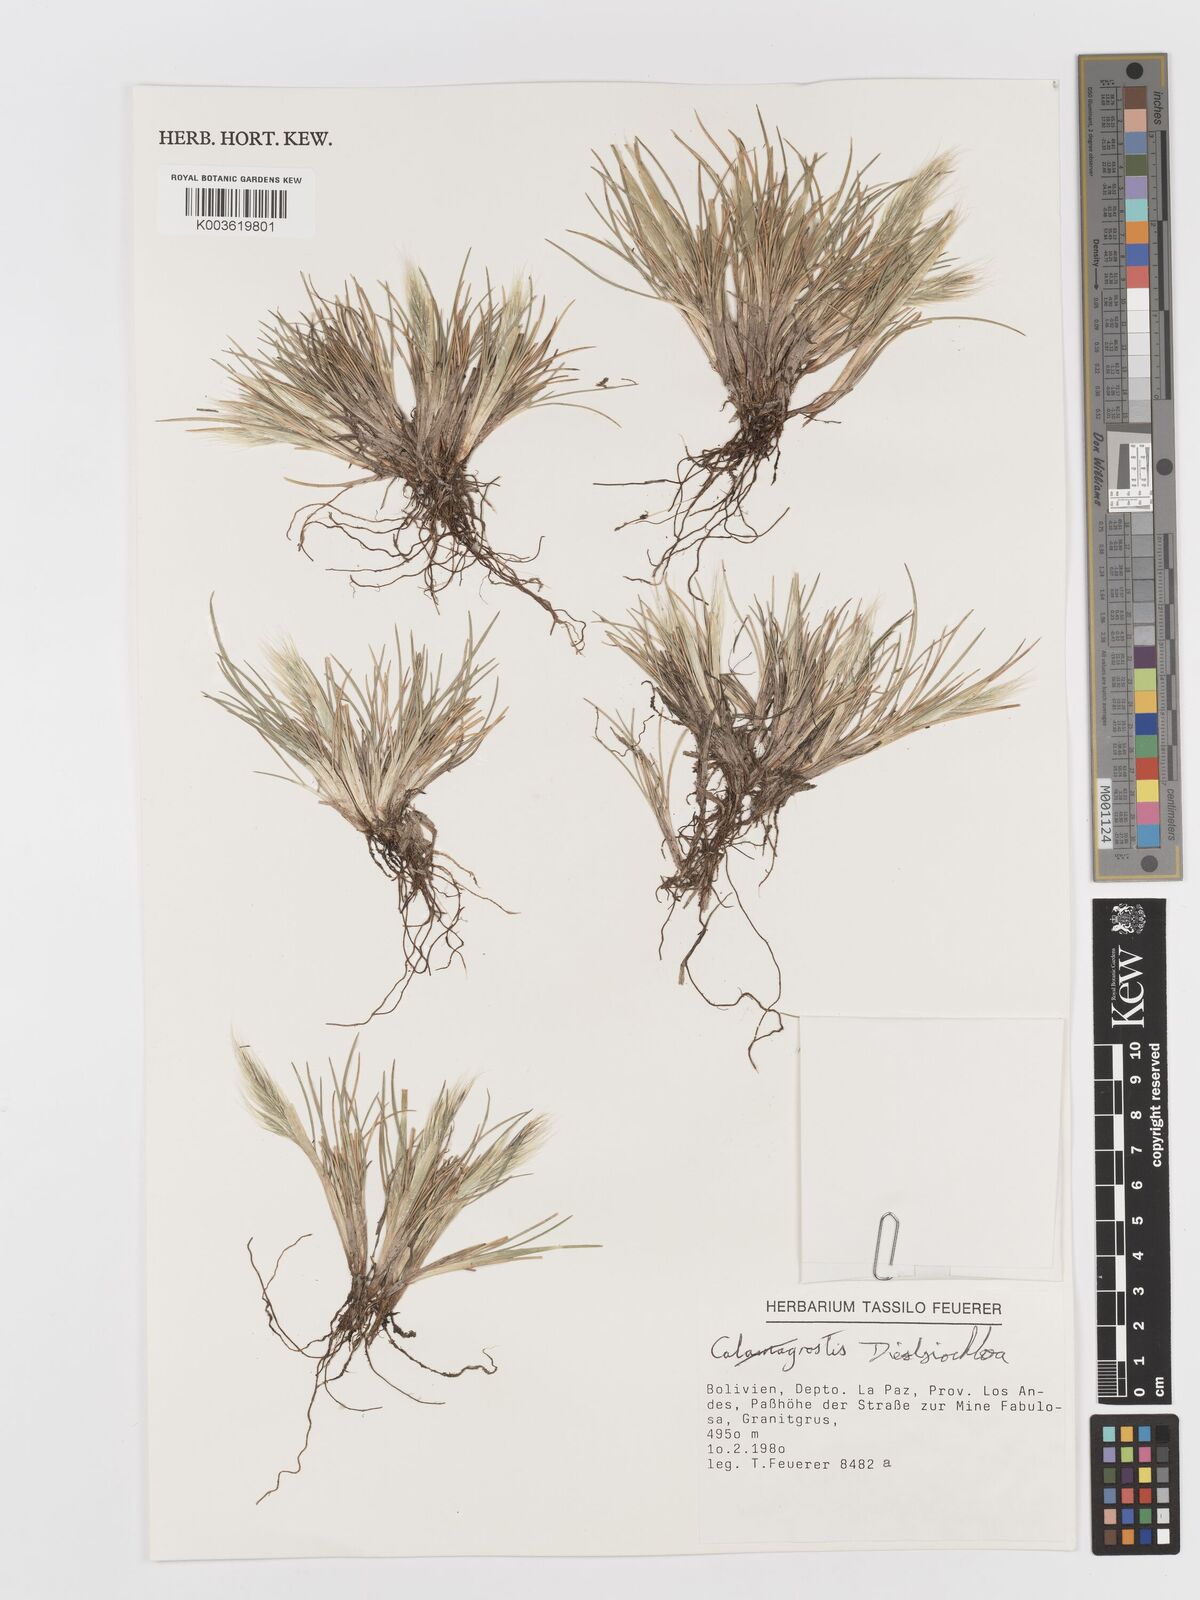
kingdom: Plantae
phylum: Tracheophyta
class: Liliopsida
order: Poales
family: Poaceae
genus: Festuca
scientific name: Festuca floribunda
